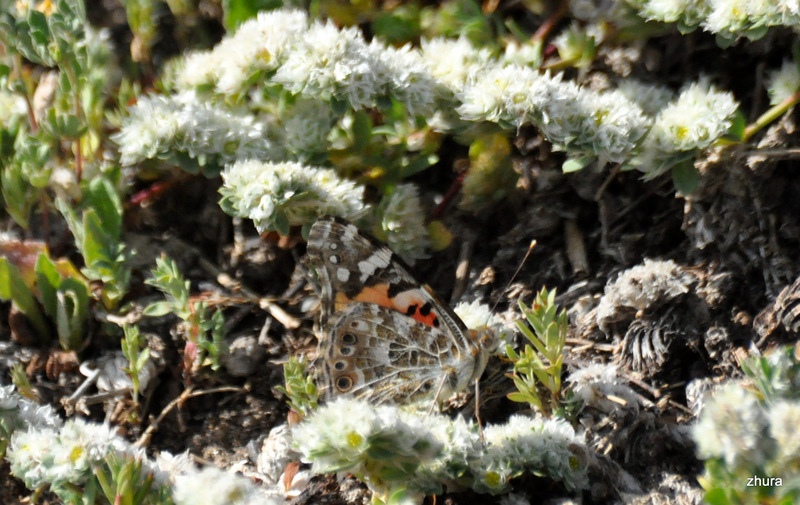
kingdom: Animalia
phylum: Arthropoda
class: Insecta
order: Lepidoptera
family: Nymphalidae
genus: Vanessa
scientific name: Vanessa
